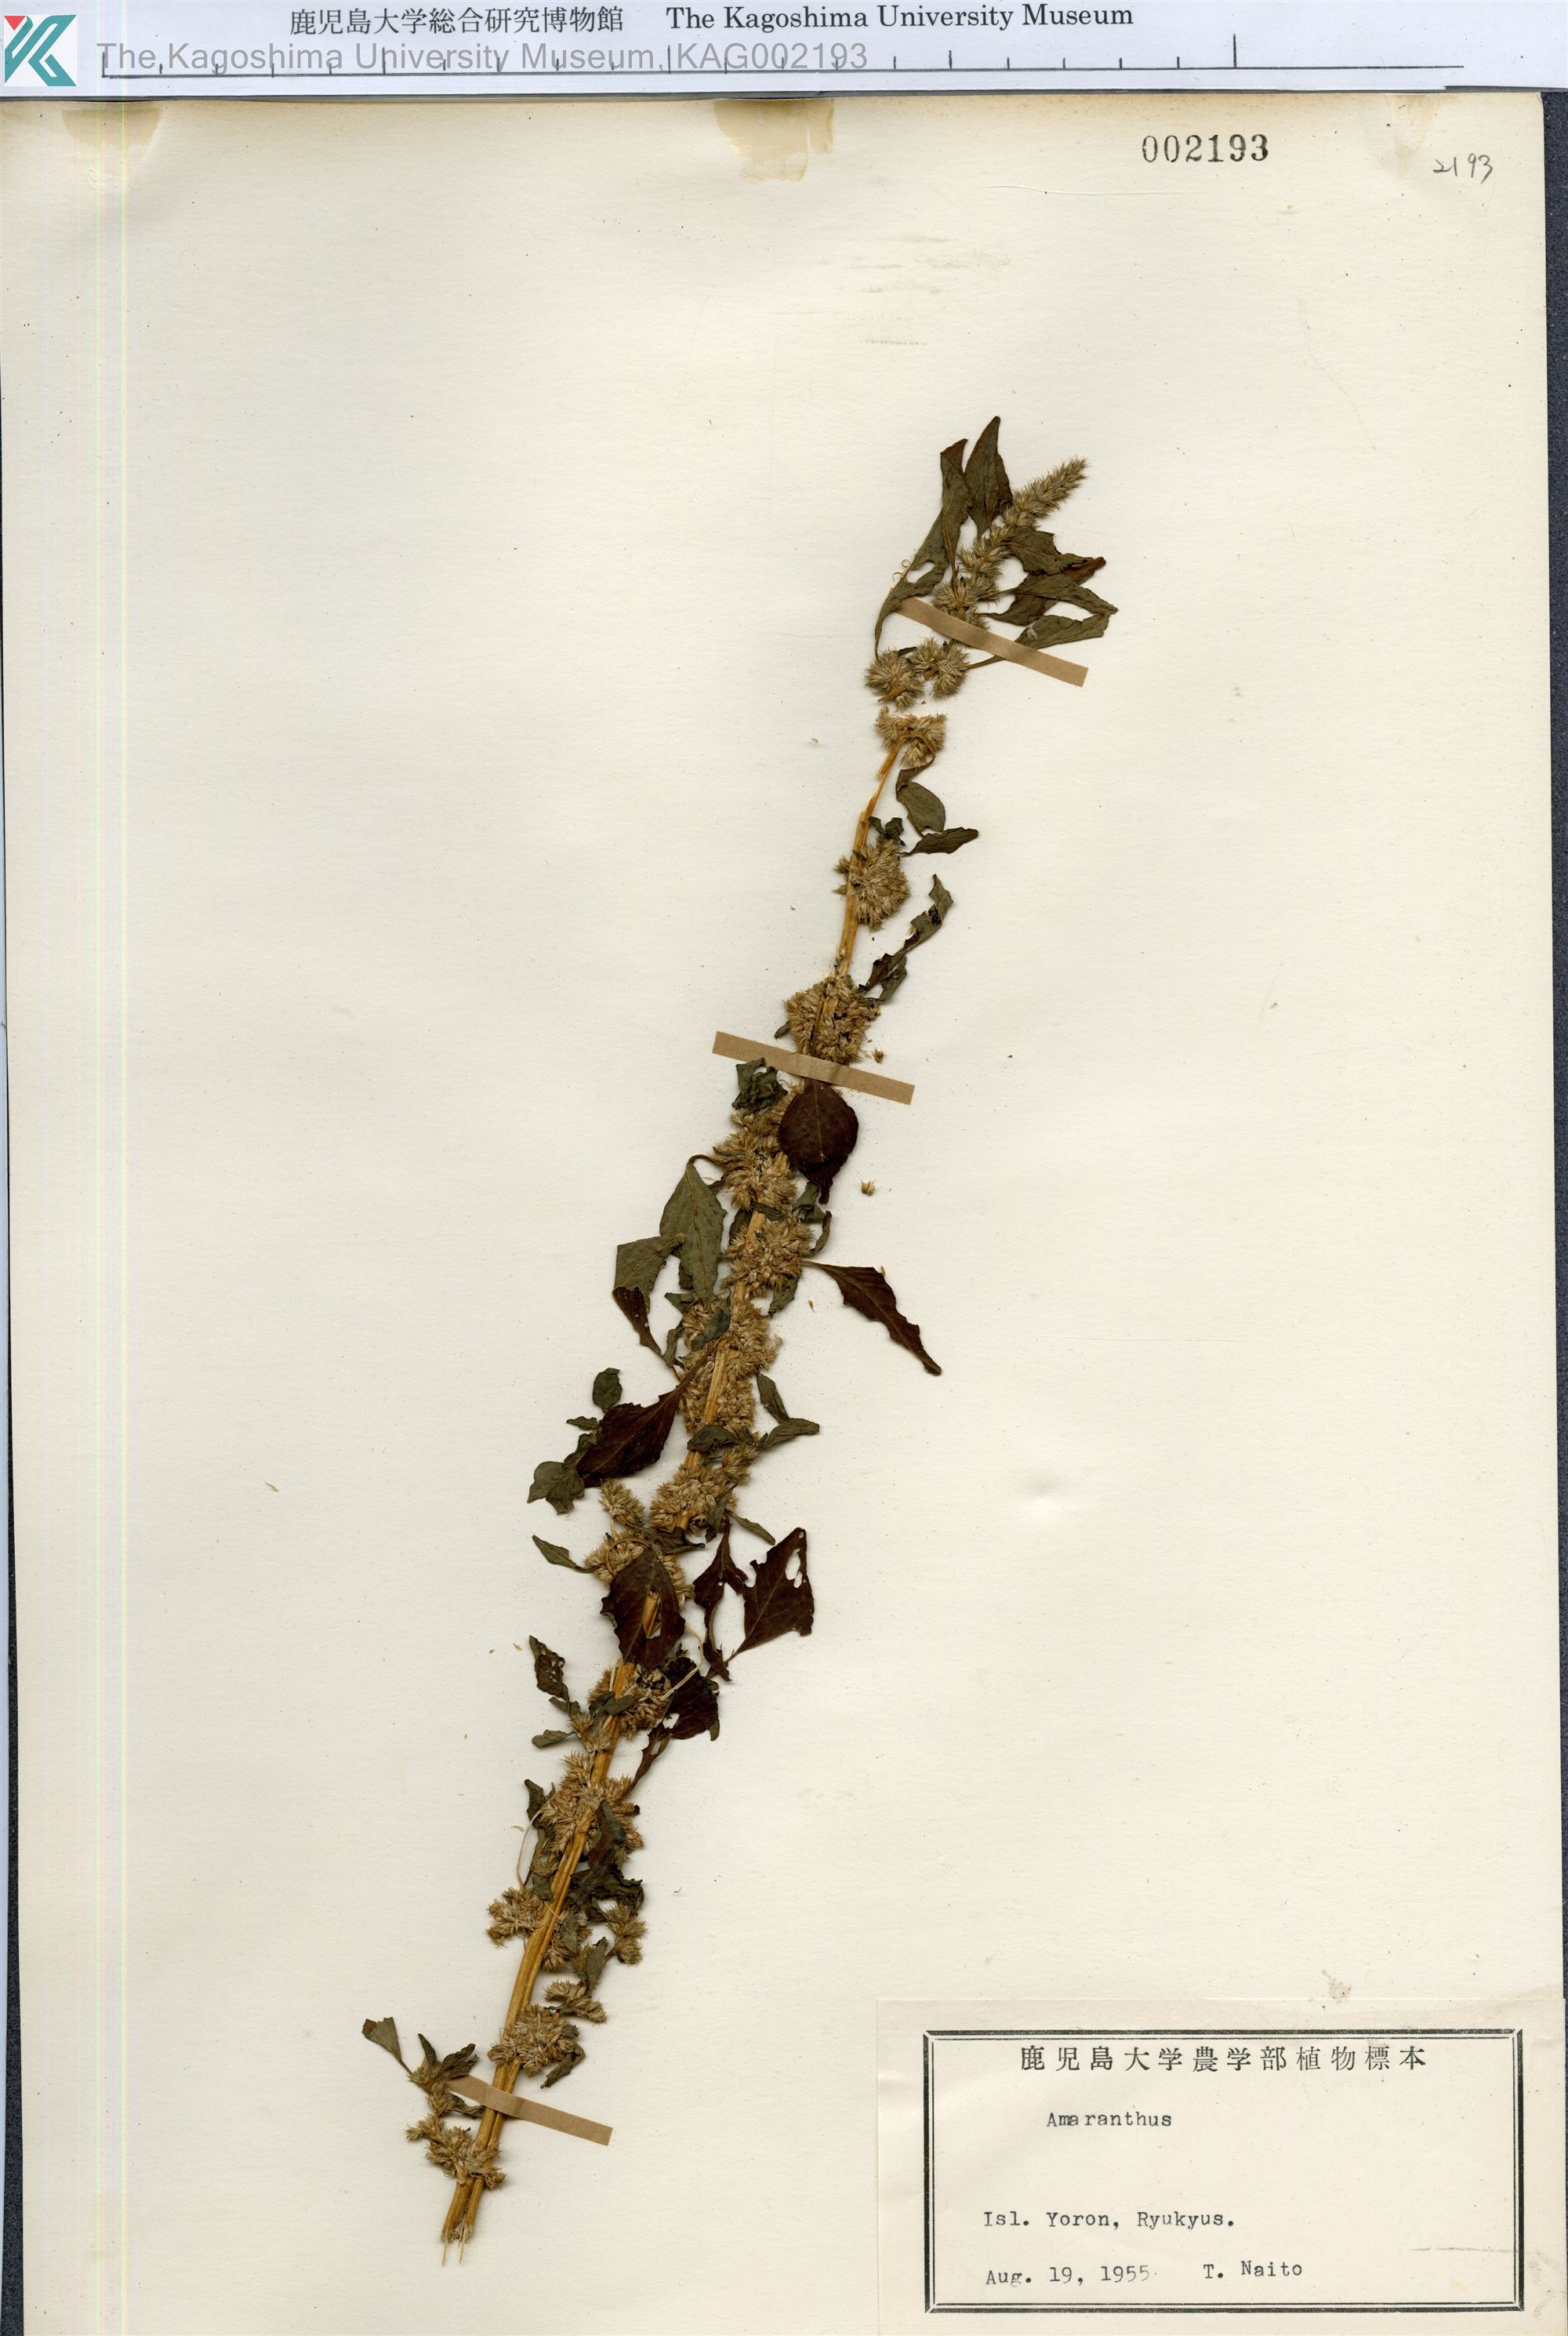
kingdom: Plantae
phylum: Tracheophyta
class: Magnoliopsida
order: Caryophyllales
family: Amaranthaceae
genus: Amaranthus
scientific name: Amaranthus
